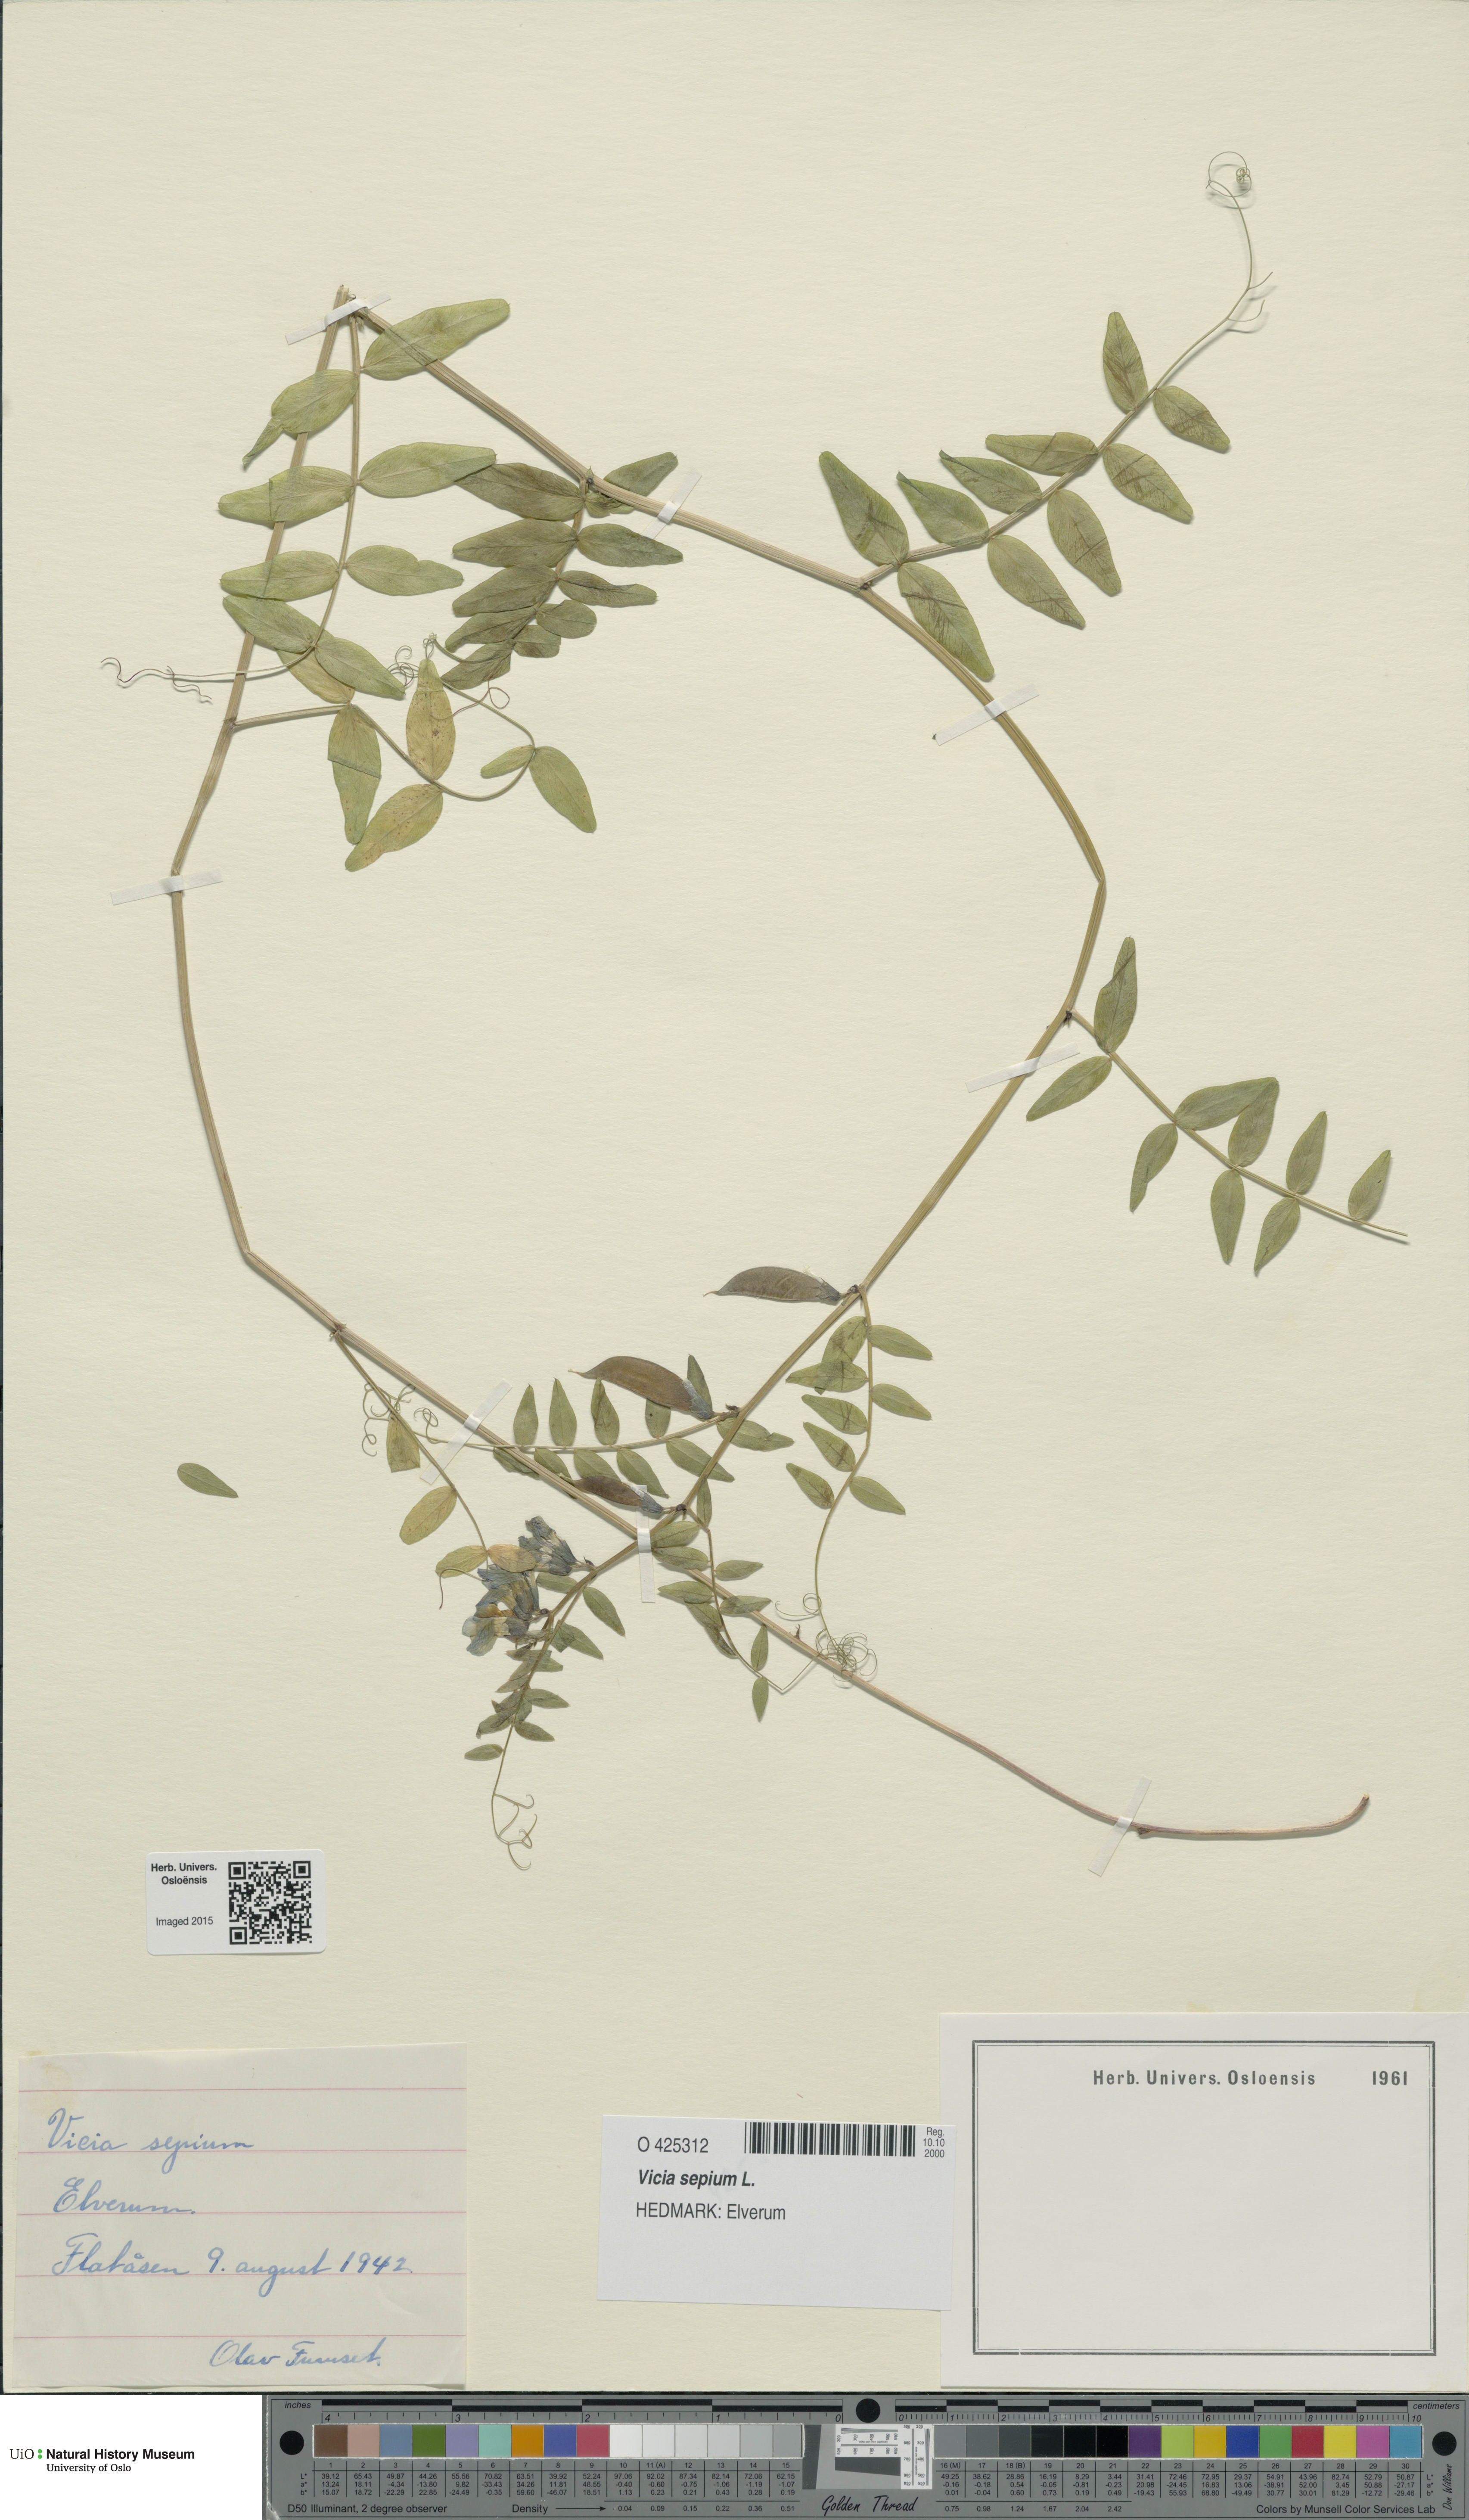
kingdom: Plantae
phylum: Tracheophyta
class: Magnoliopsida
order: Fabales
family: Fabaceae
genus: Vicia
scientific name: Vicia sepium
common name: Bush vetch
